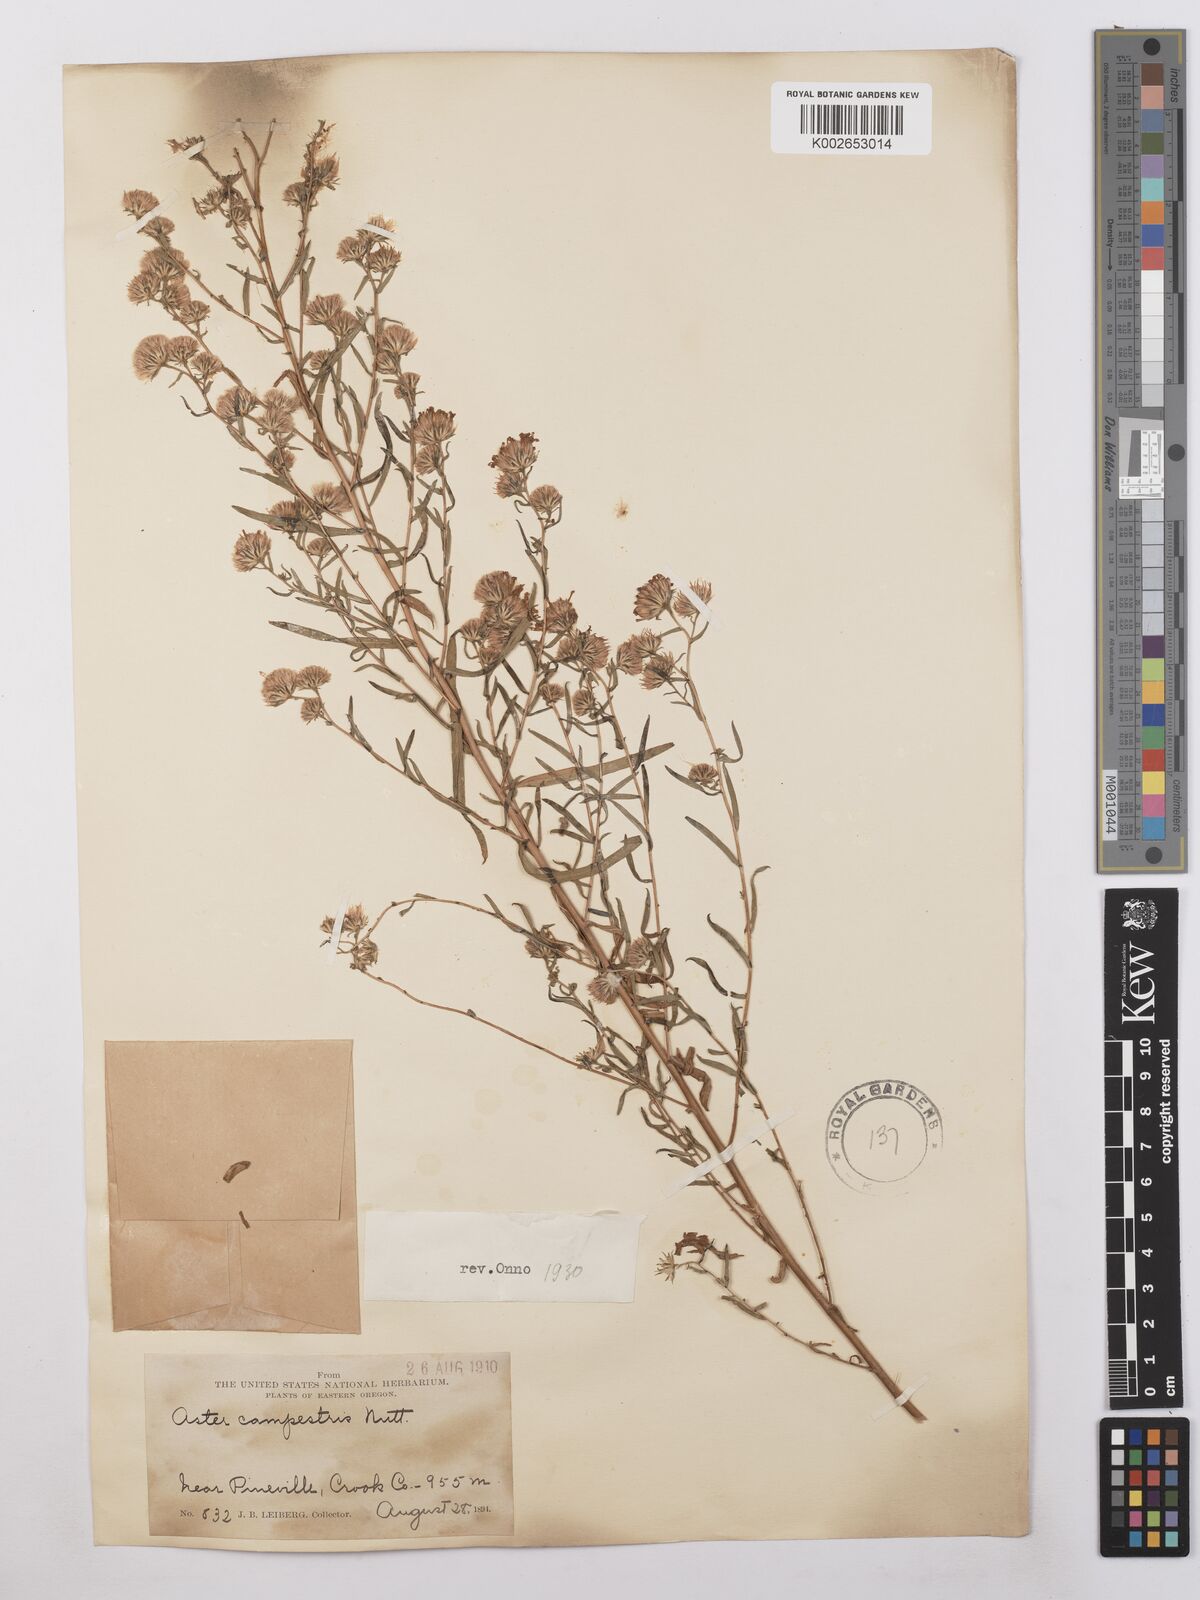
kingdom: Plantae
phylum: Tracheophyta
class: Magnoliopsida
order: Asterales
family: Asteraceae
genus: Symphyotrichum
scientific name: Symphyotrichum campestre
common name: Meadow aster
